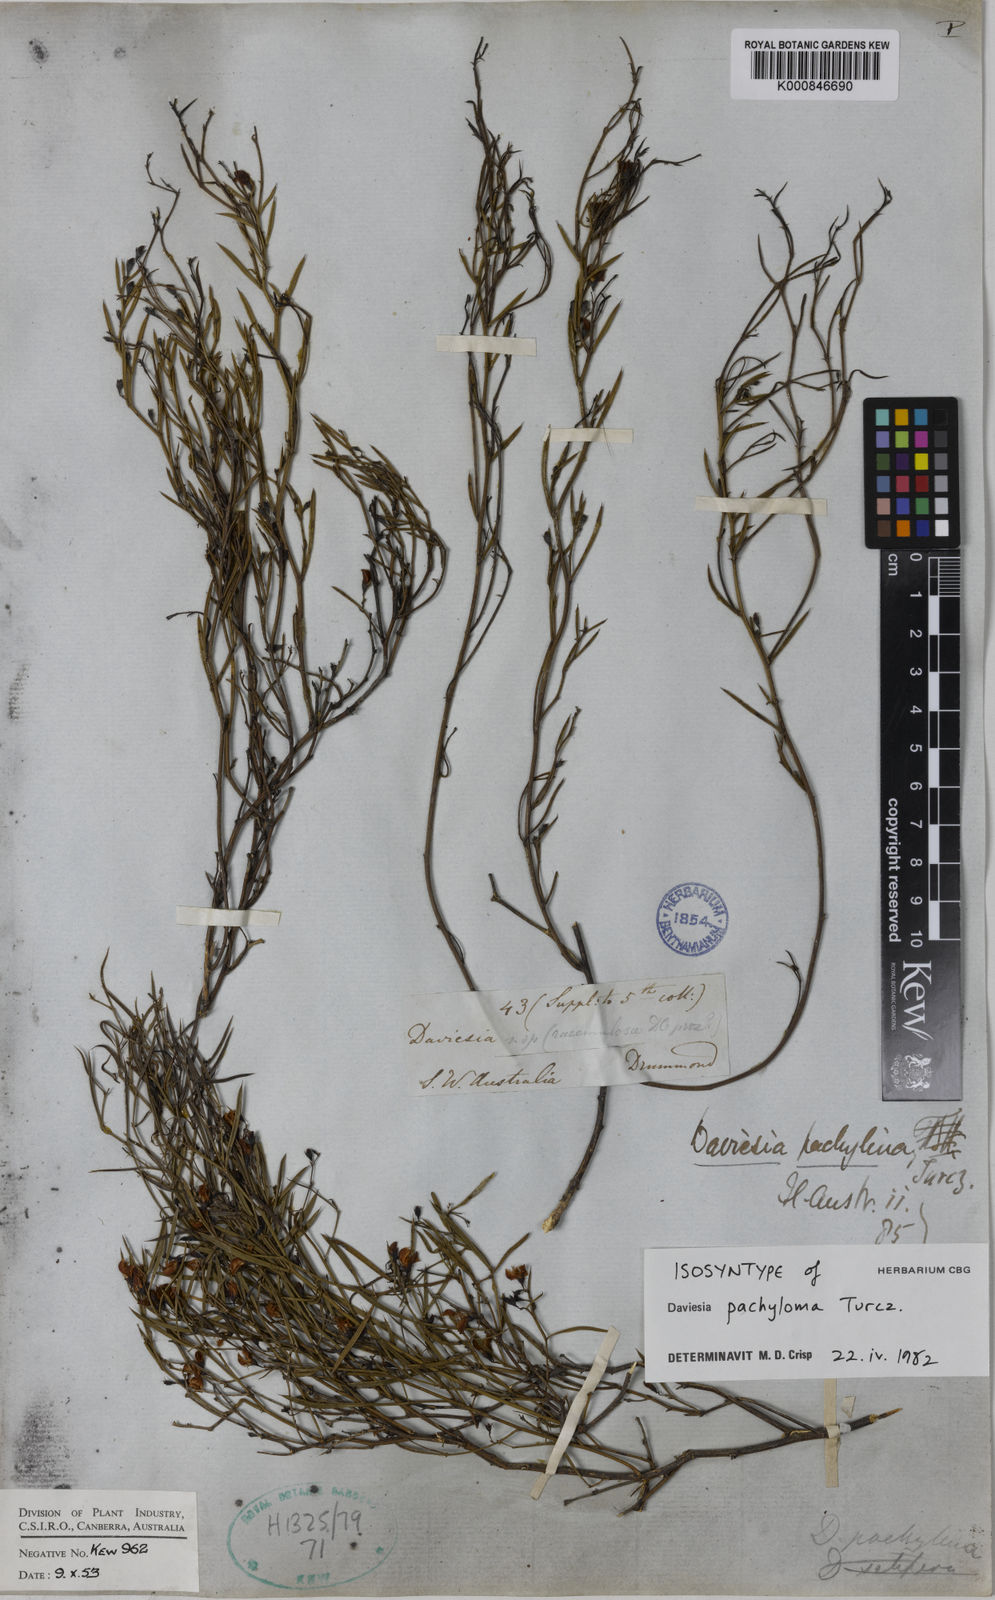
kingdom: Plantae
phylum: Tracheophyta
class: Magnoliopsida
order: Fabales
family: Fabaceae
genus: Daviesia
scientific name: Daviesia
